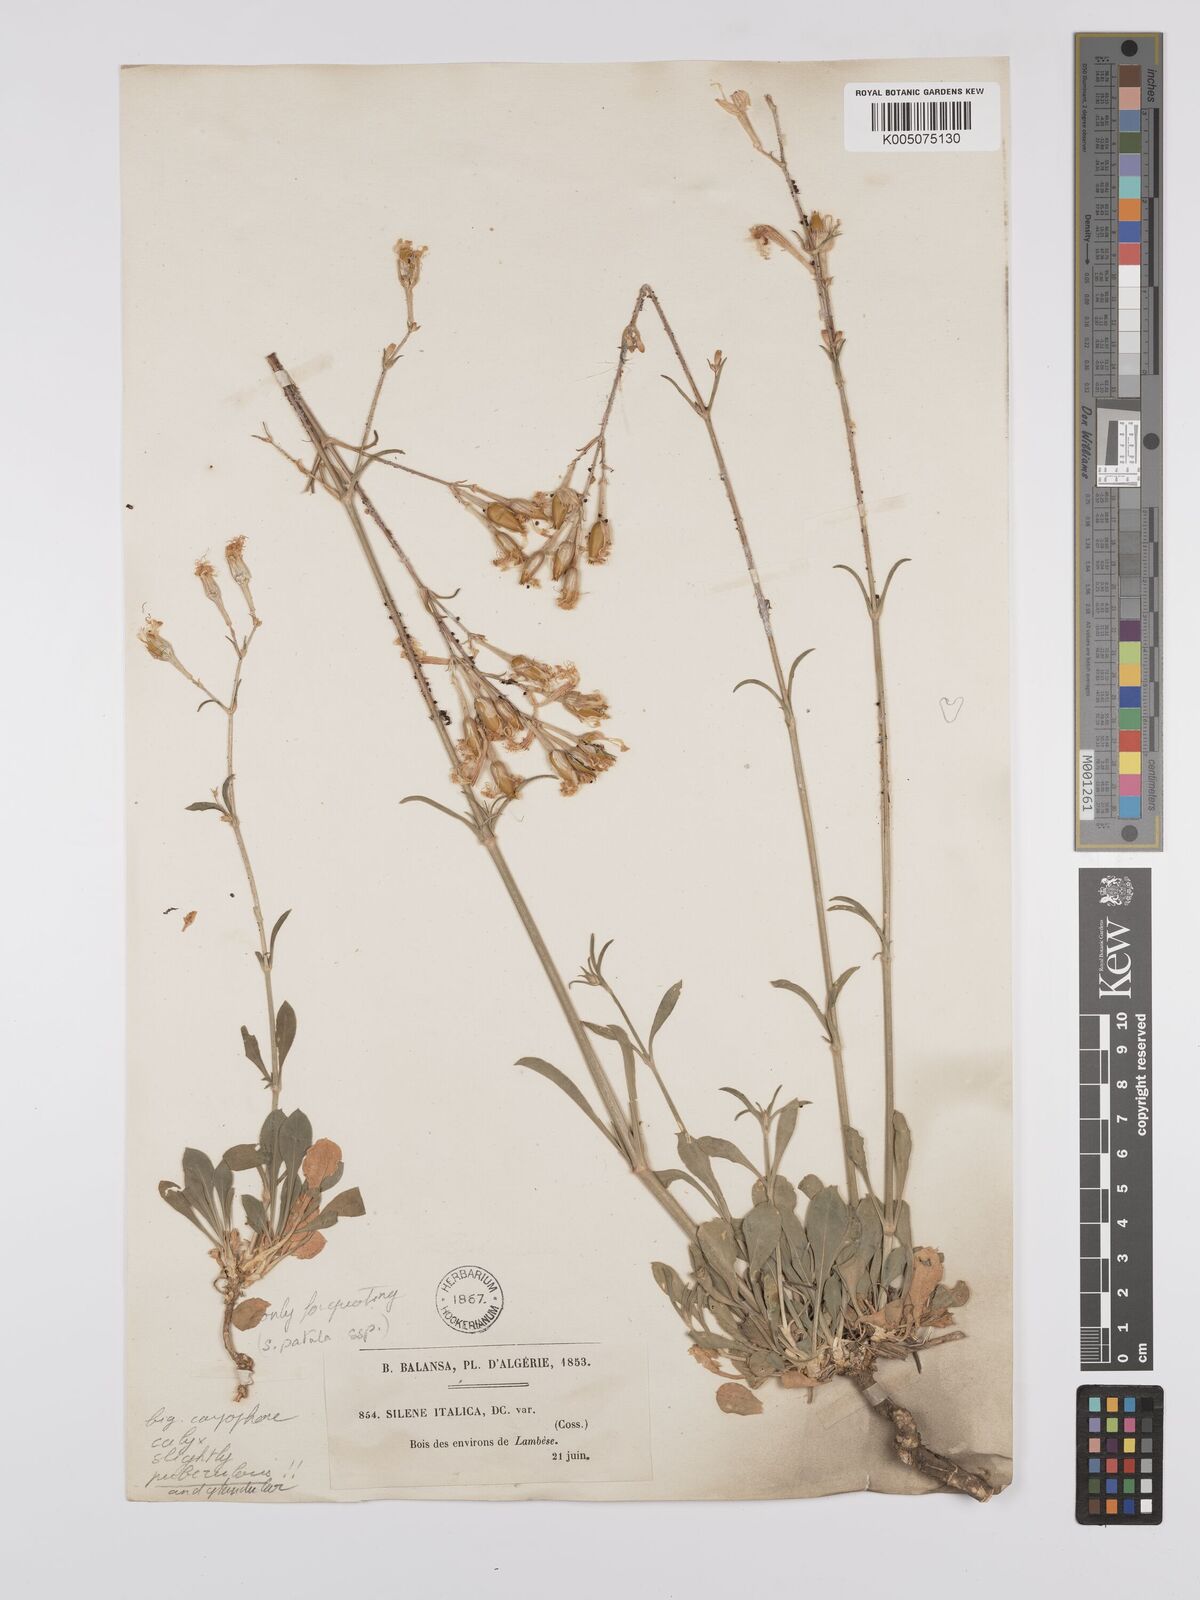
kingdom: Plantae
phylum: Tracheophyta
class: Magnoliopsida
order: Caryophyllales
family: Caryophyllaceae
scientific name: Caryophyllaceae
